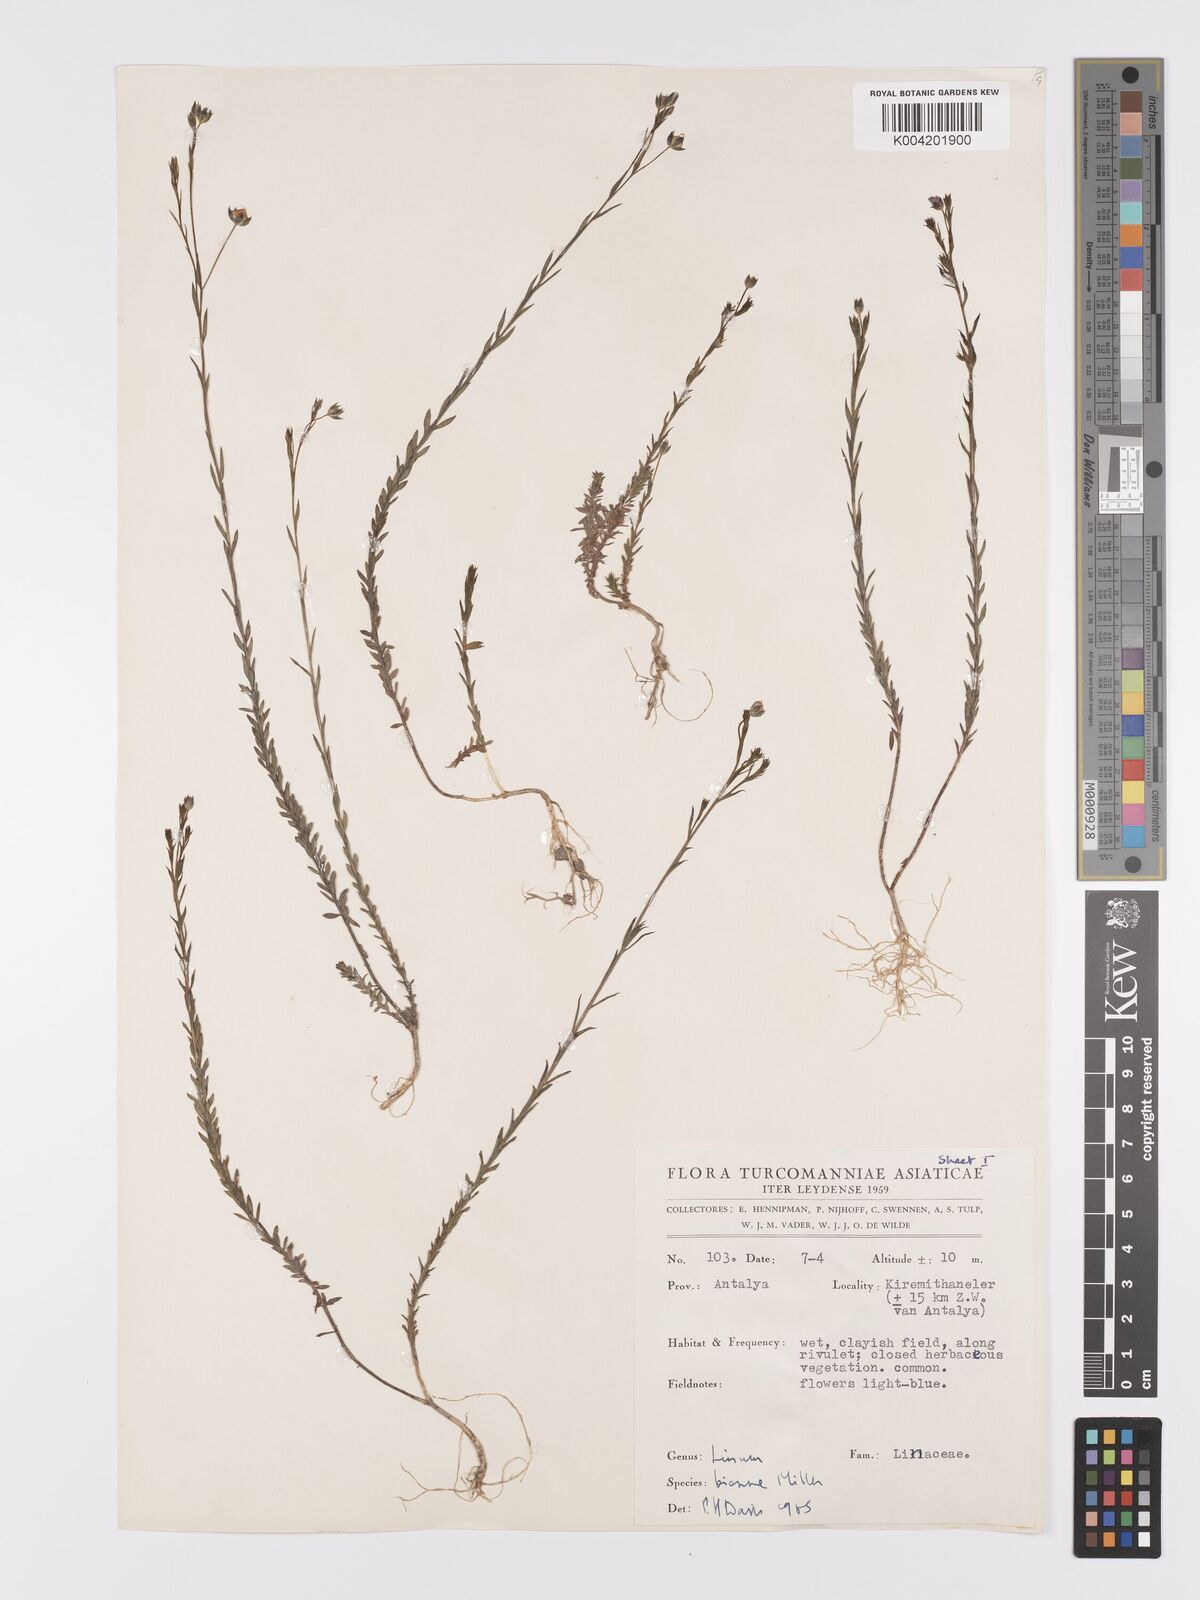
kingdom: Plantae
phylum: Tracheophyta
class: Magnoliopsida
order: Malpighiales
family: Linaceae
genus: Linum
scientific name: Linum
